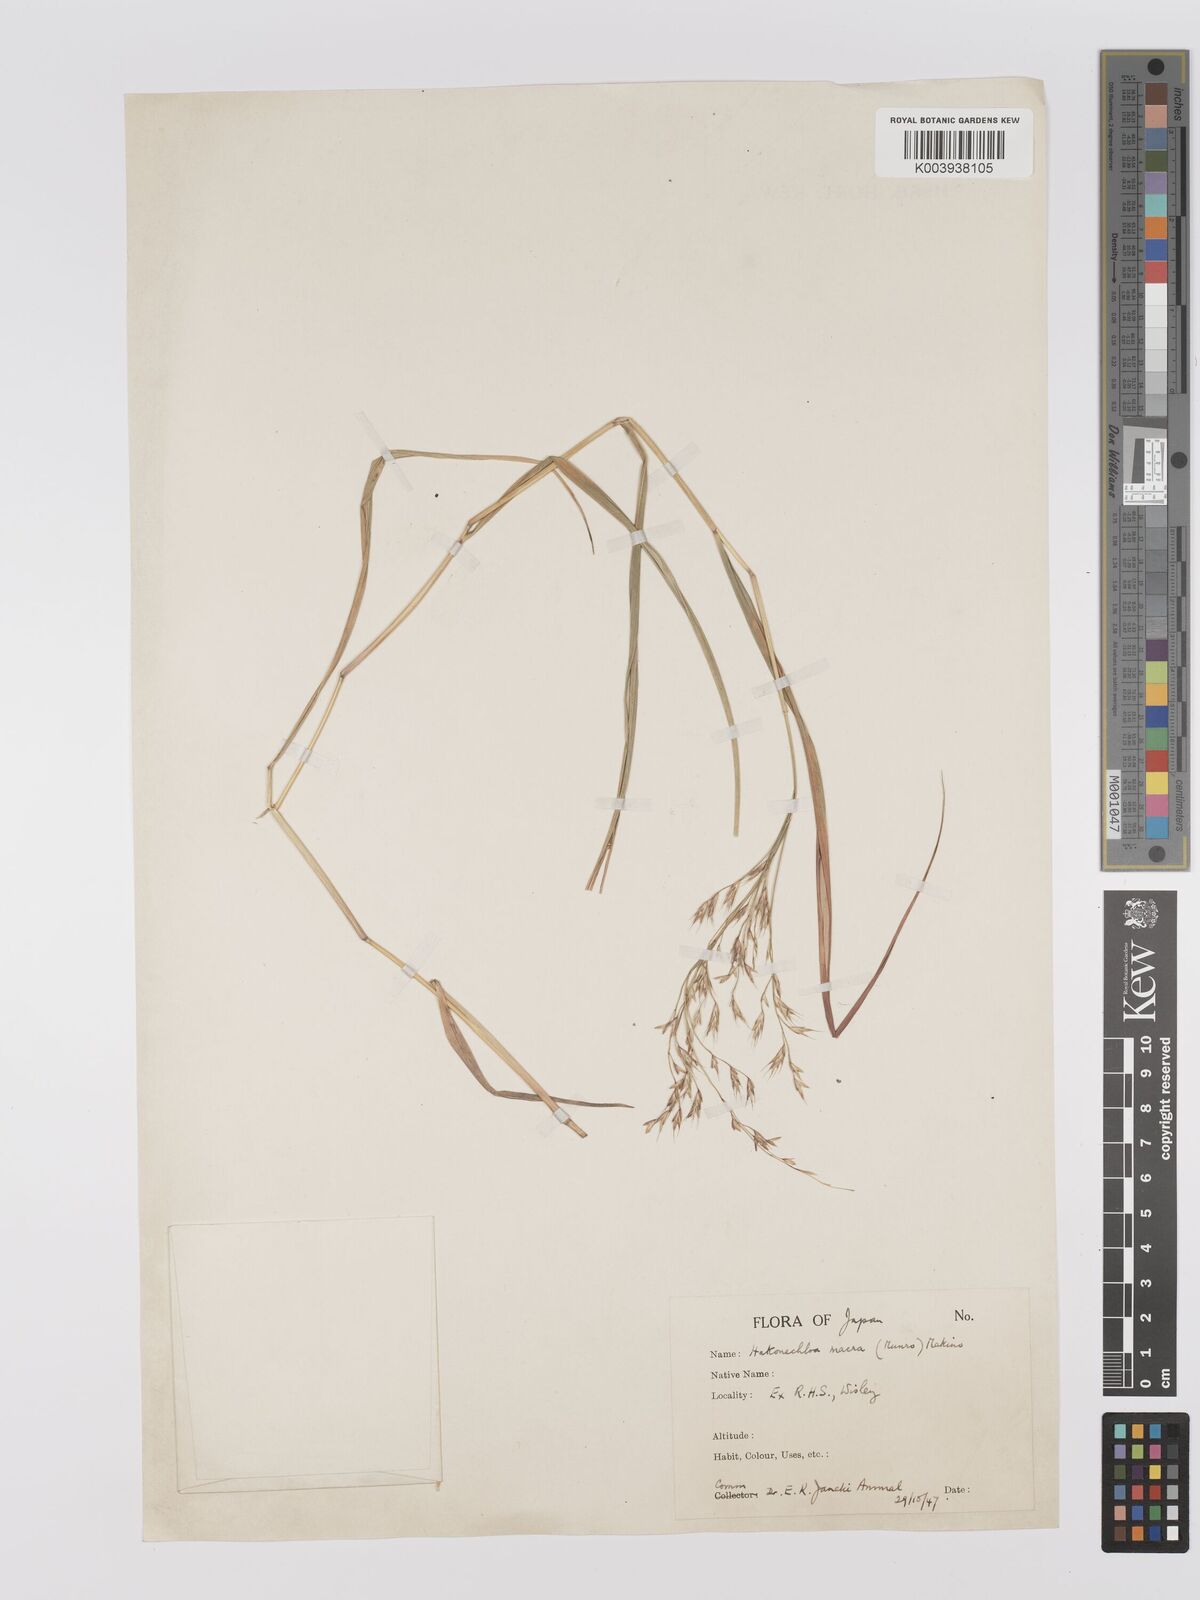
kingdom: Plantae
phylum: Tracheophyta
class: Liliopsida
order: Poales
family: Poaceae
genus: Hakonechloa
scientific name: Hakonechloa macra
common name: Hakone grass
